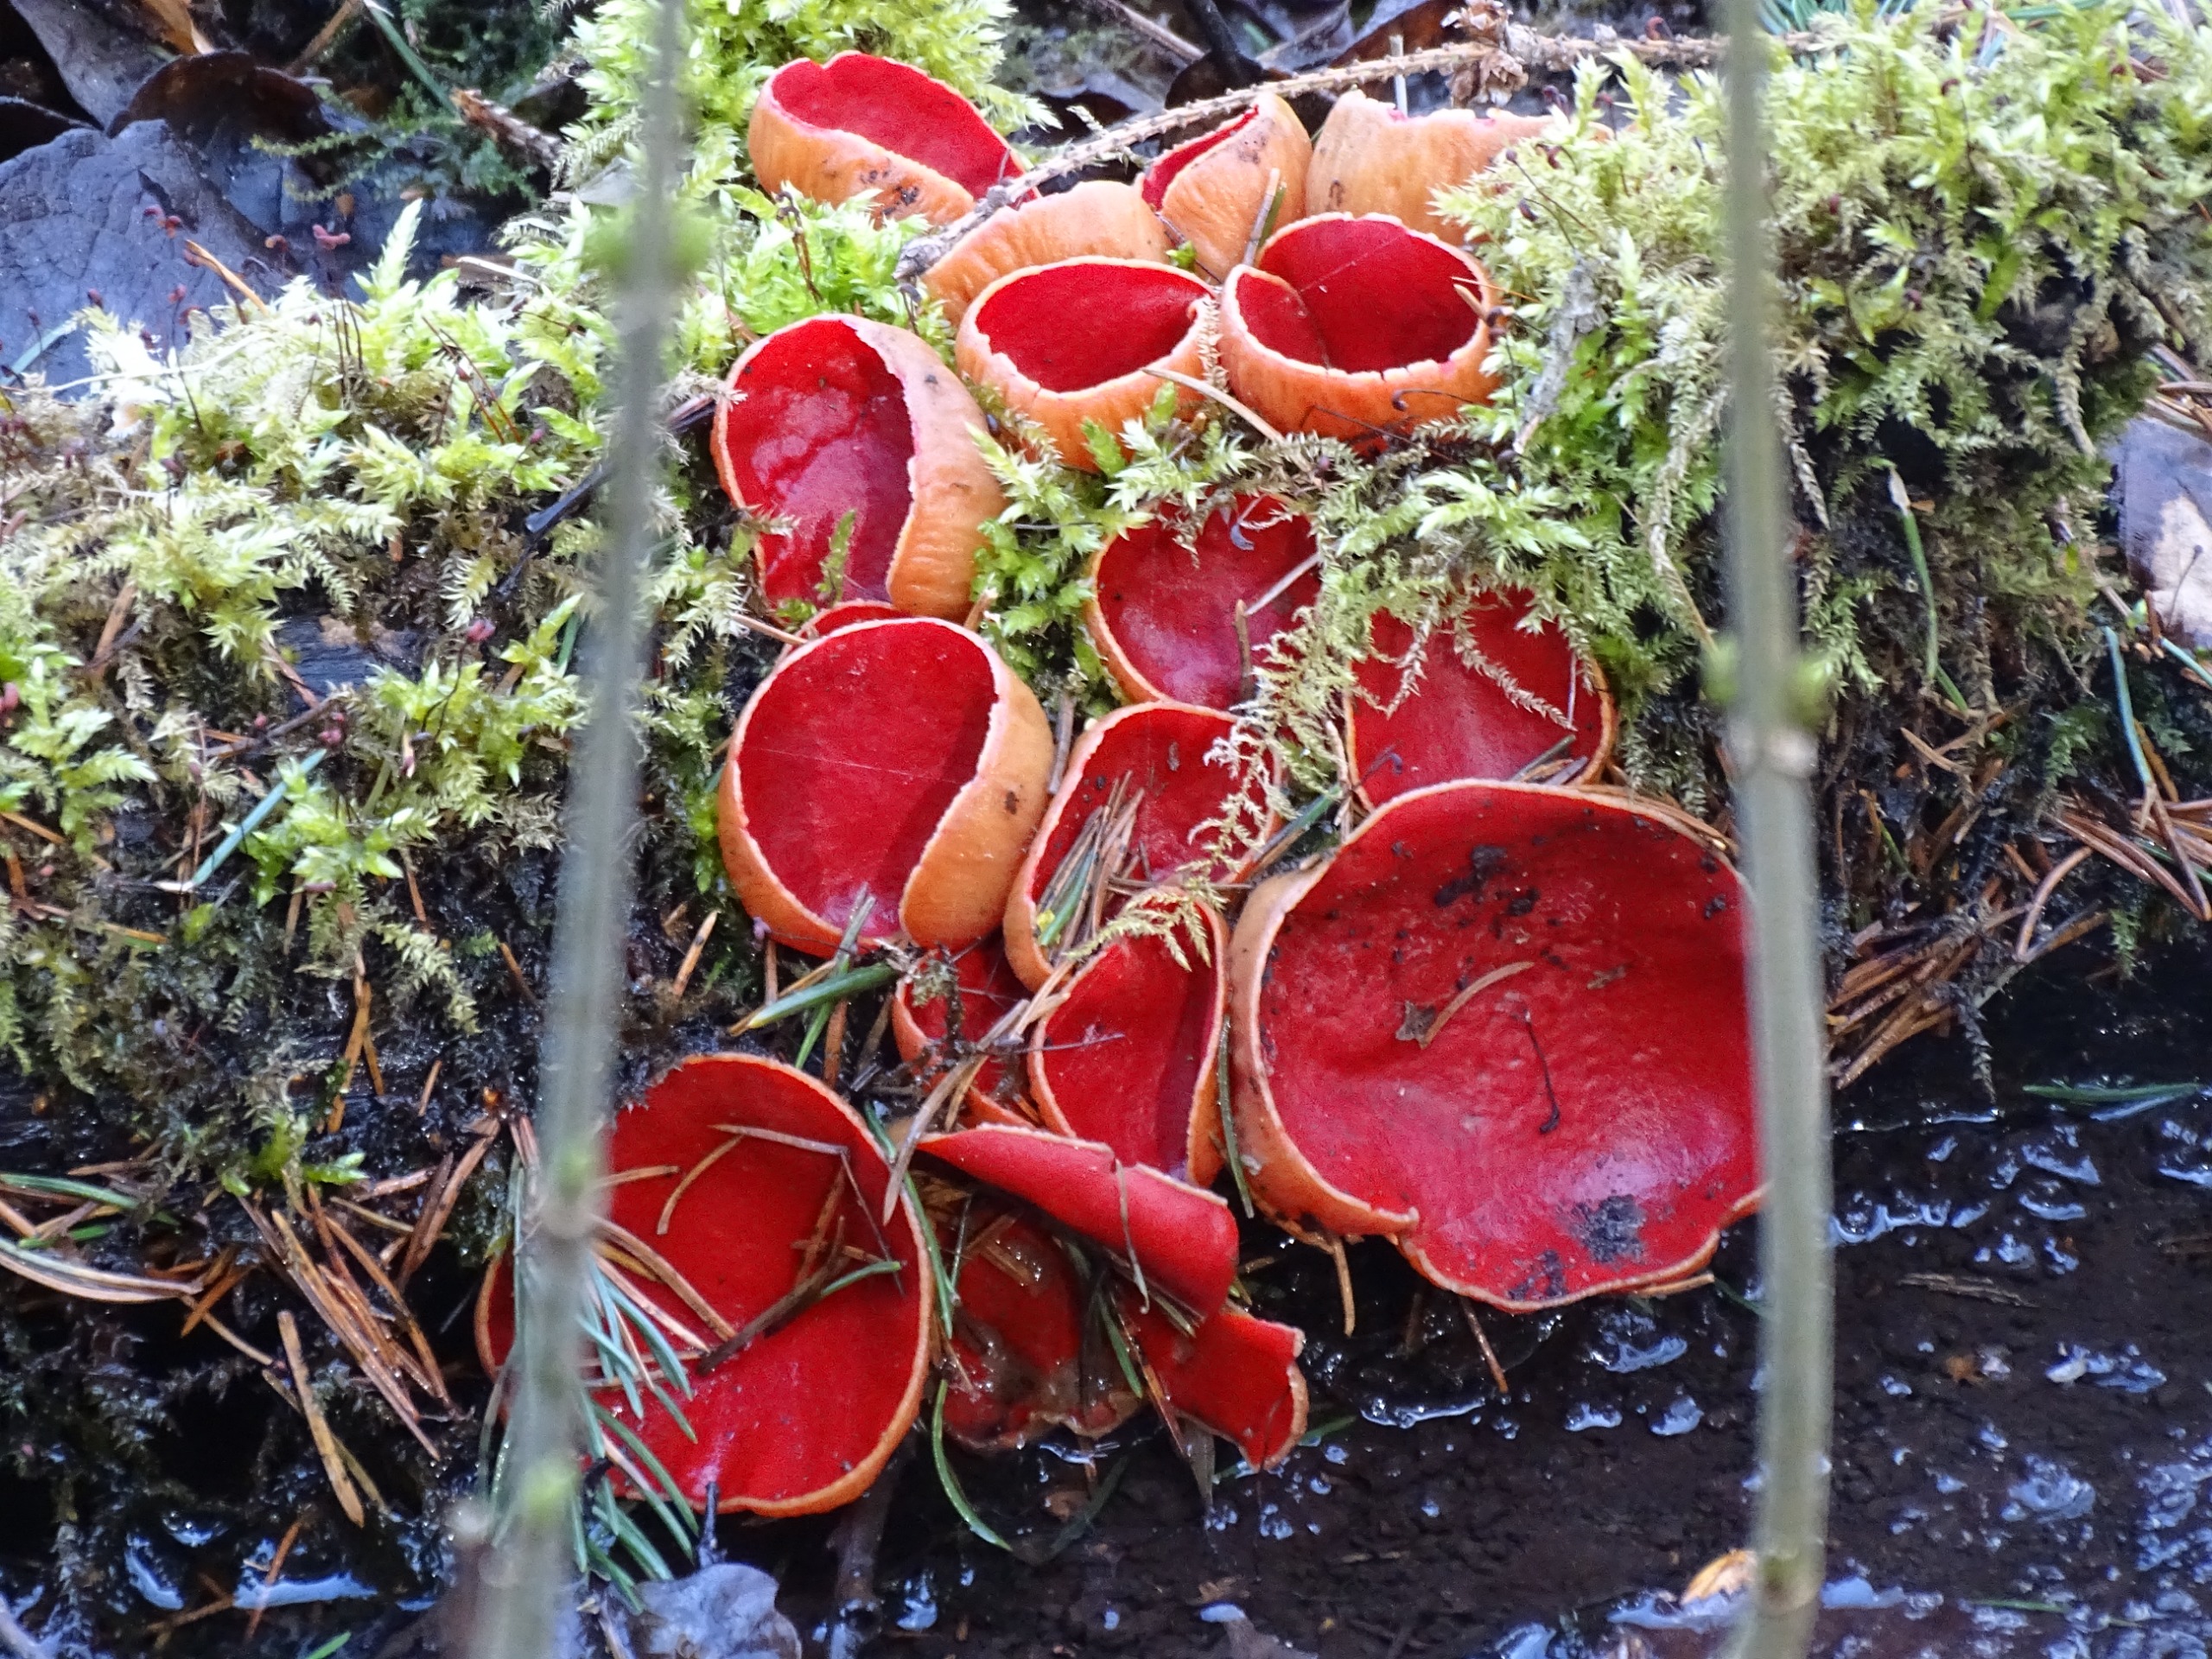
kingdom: Fungi
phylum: Ascomycota
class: Pezizomycetes
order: Pezizales
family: Sarcoscyphaceae
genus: Sarcoscypha
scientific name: Sarcoscypha austriaca
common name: Krølhåret pragtbæger
